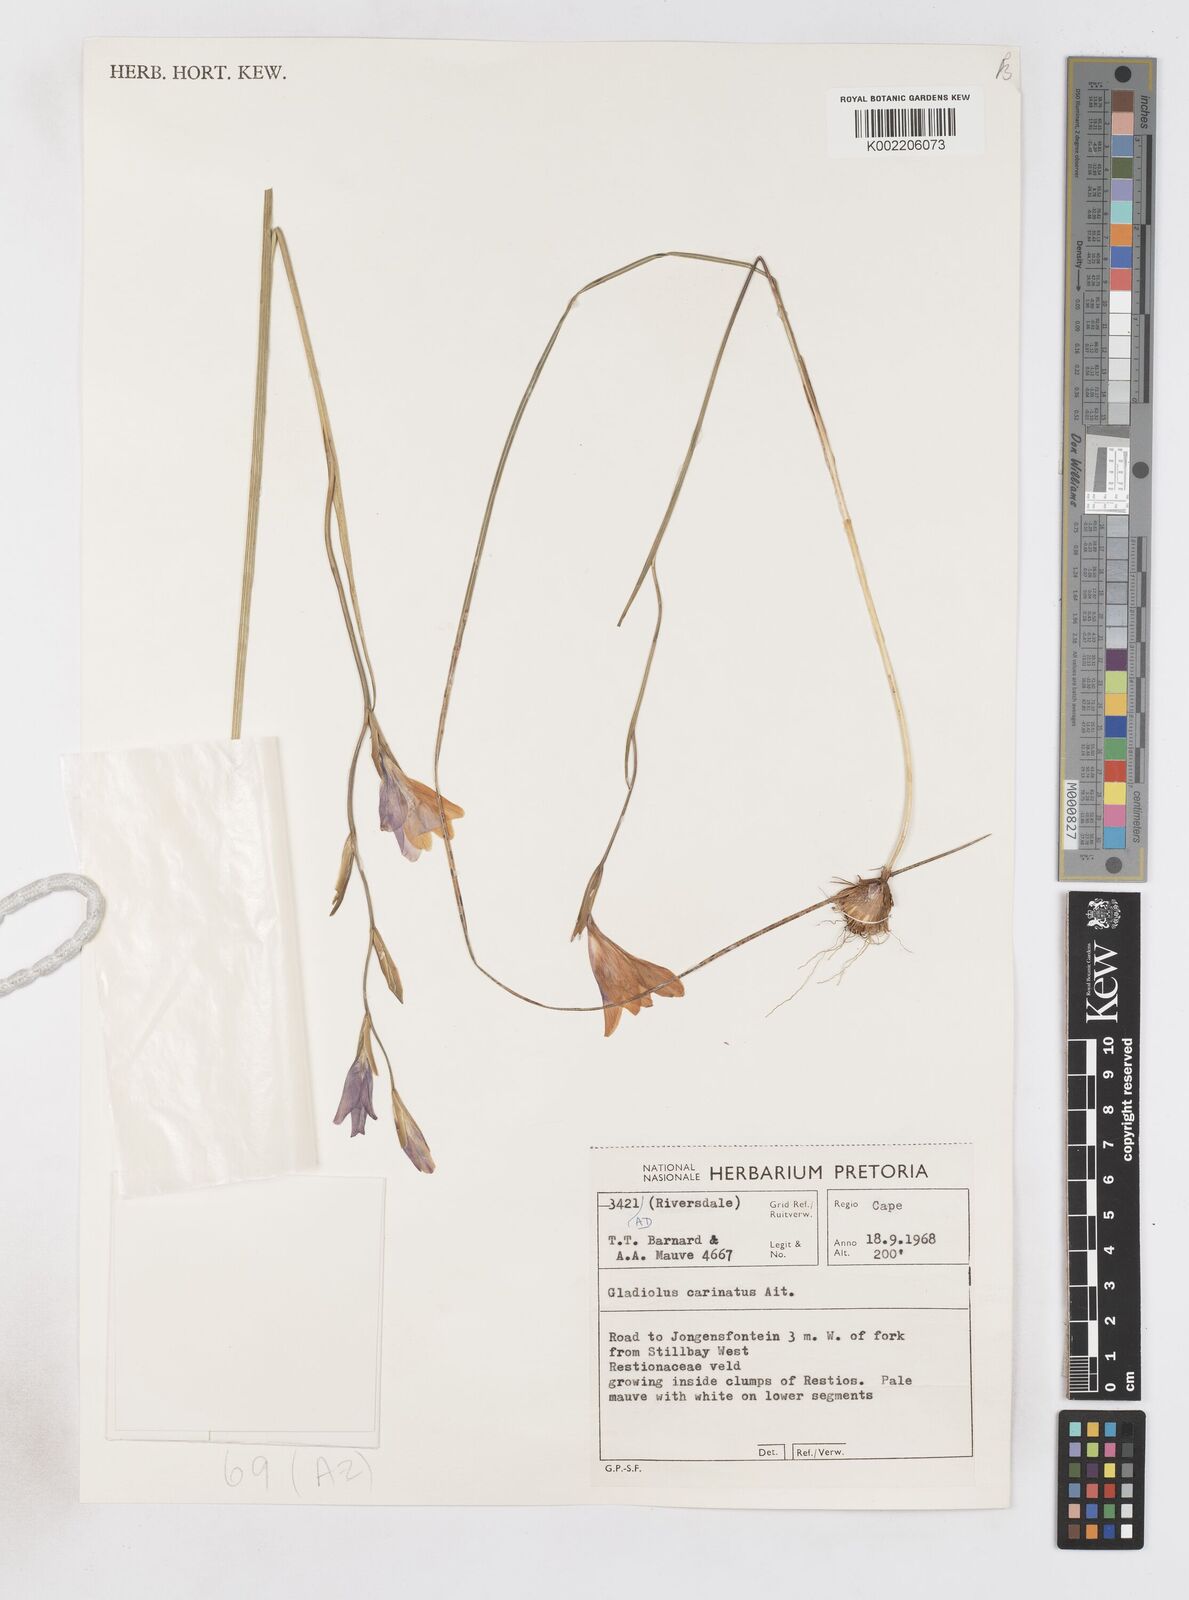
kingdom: Plantae
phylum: Tracheophyta
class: Liliopsida
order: Asparagales
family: Iridaceae
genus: Gladiolus
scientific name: Gladiolus carinatus
